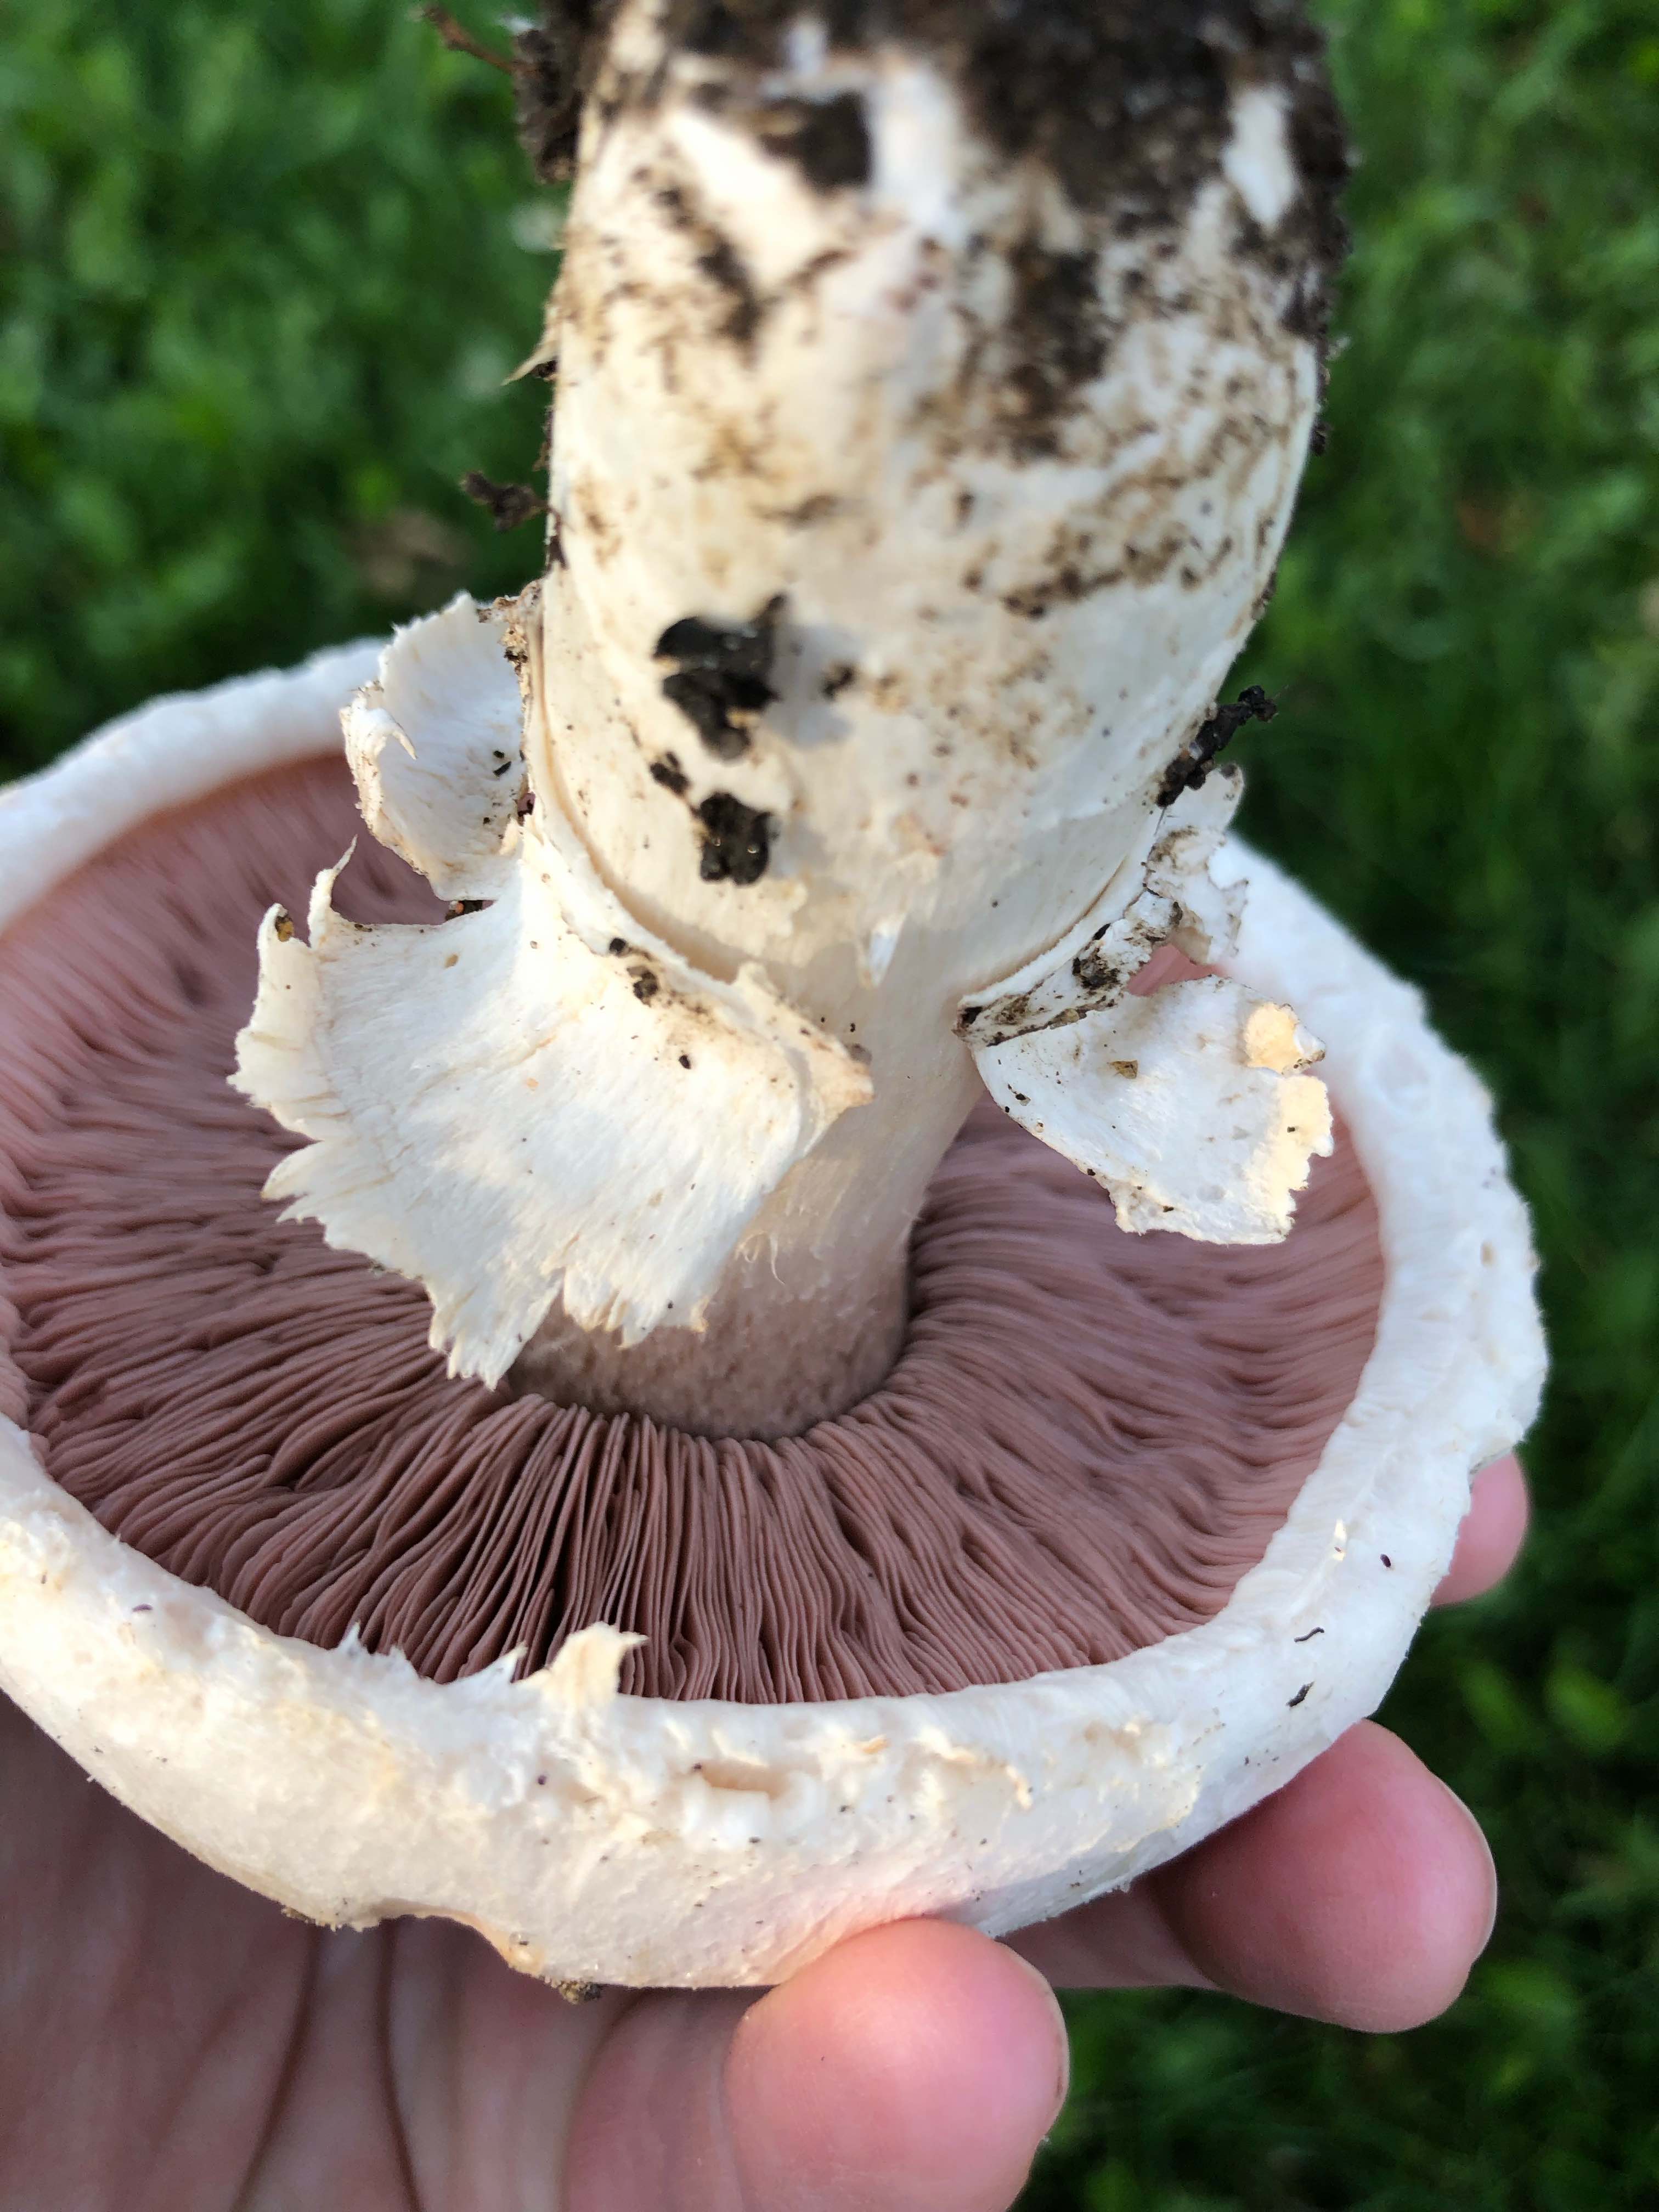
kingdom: Fungi
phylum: Basidiomycota
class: Agaricomycetes
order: Agaricales
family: Agaricaceae
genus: Agaricus
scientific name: Agaricus campestris
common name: mark-champignon
